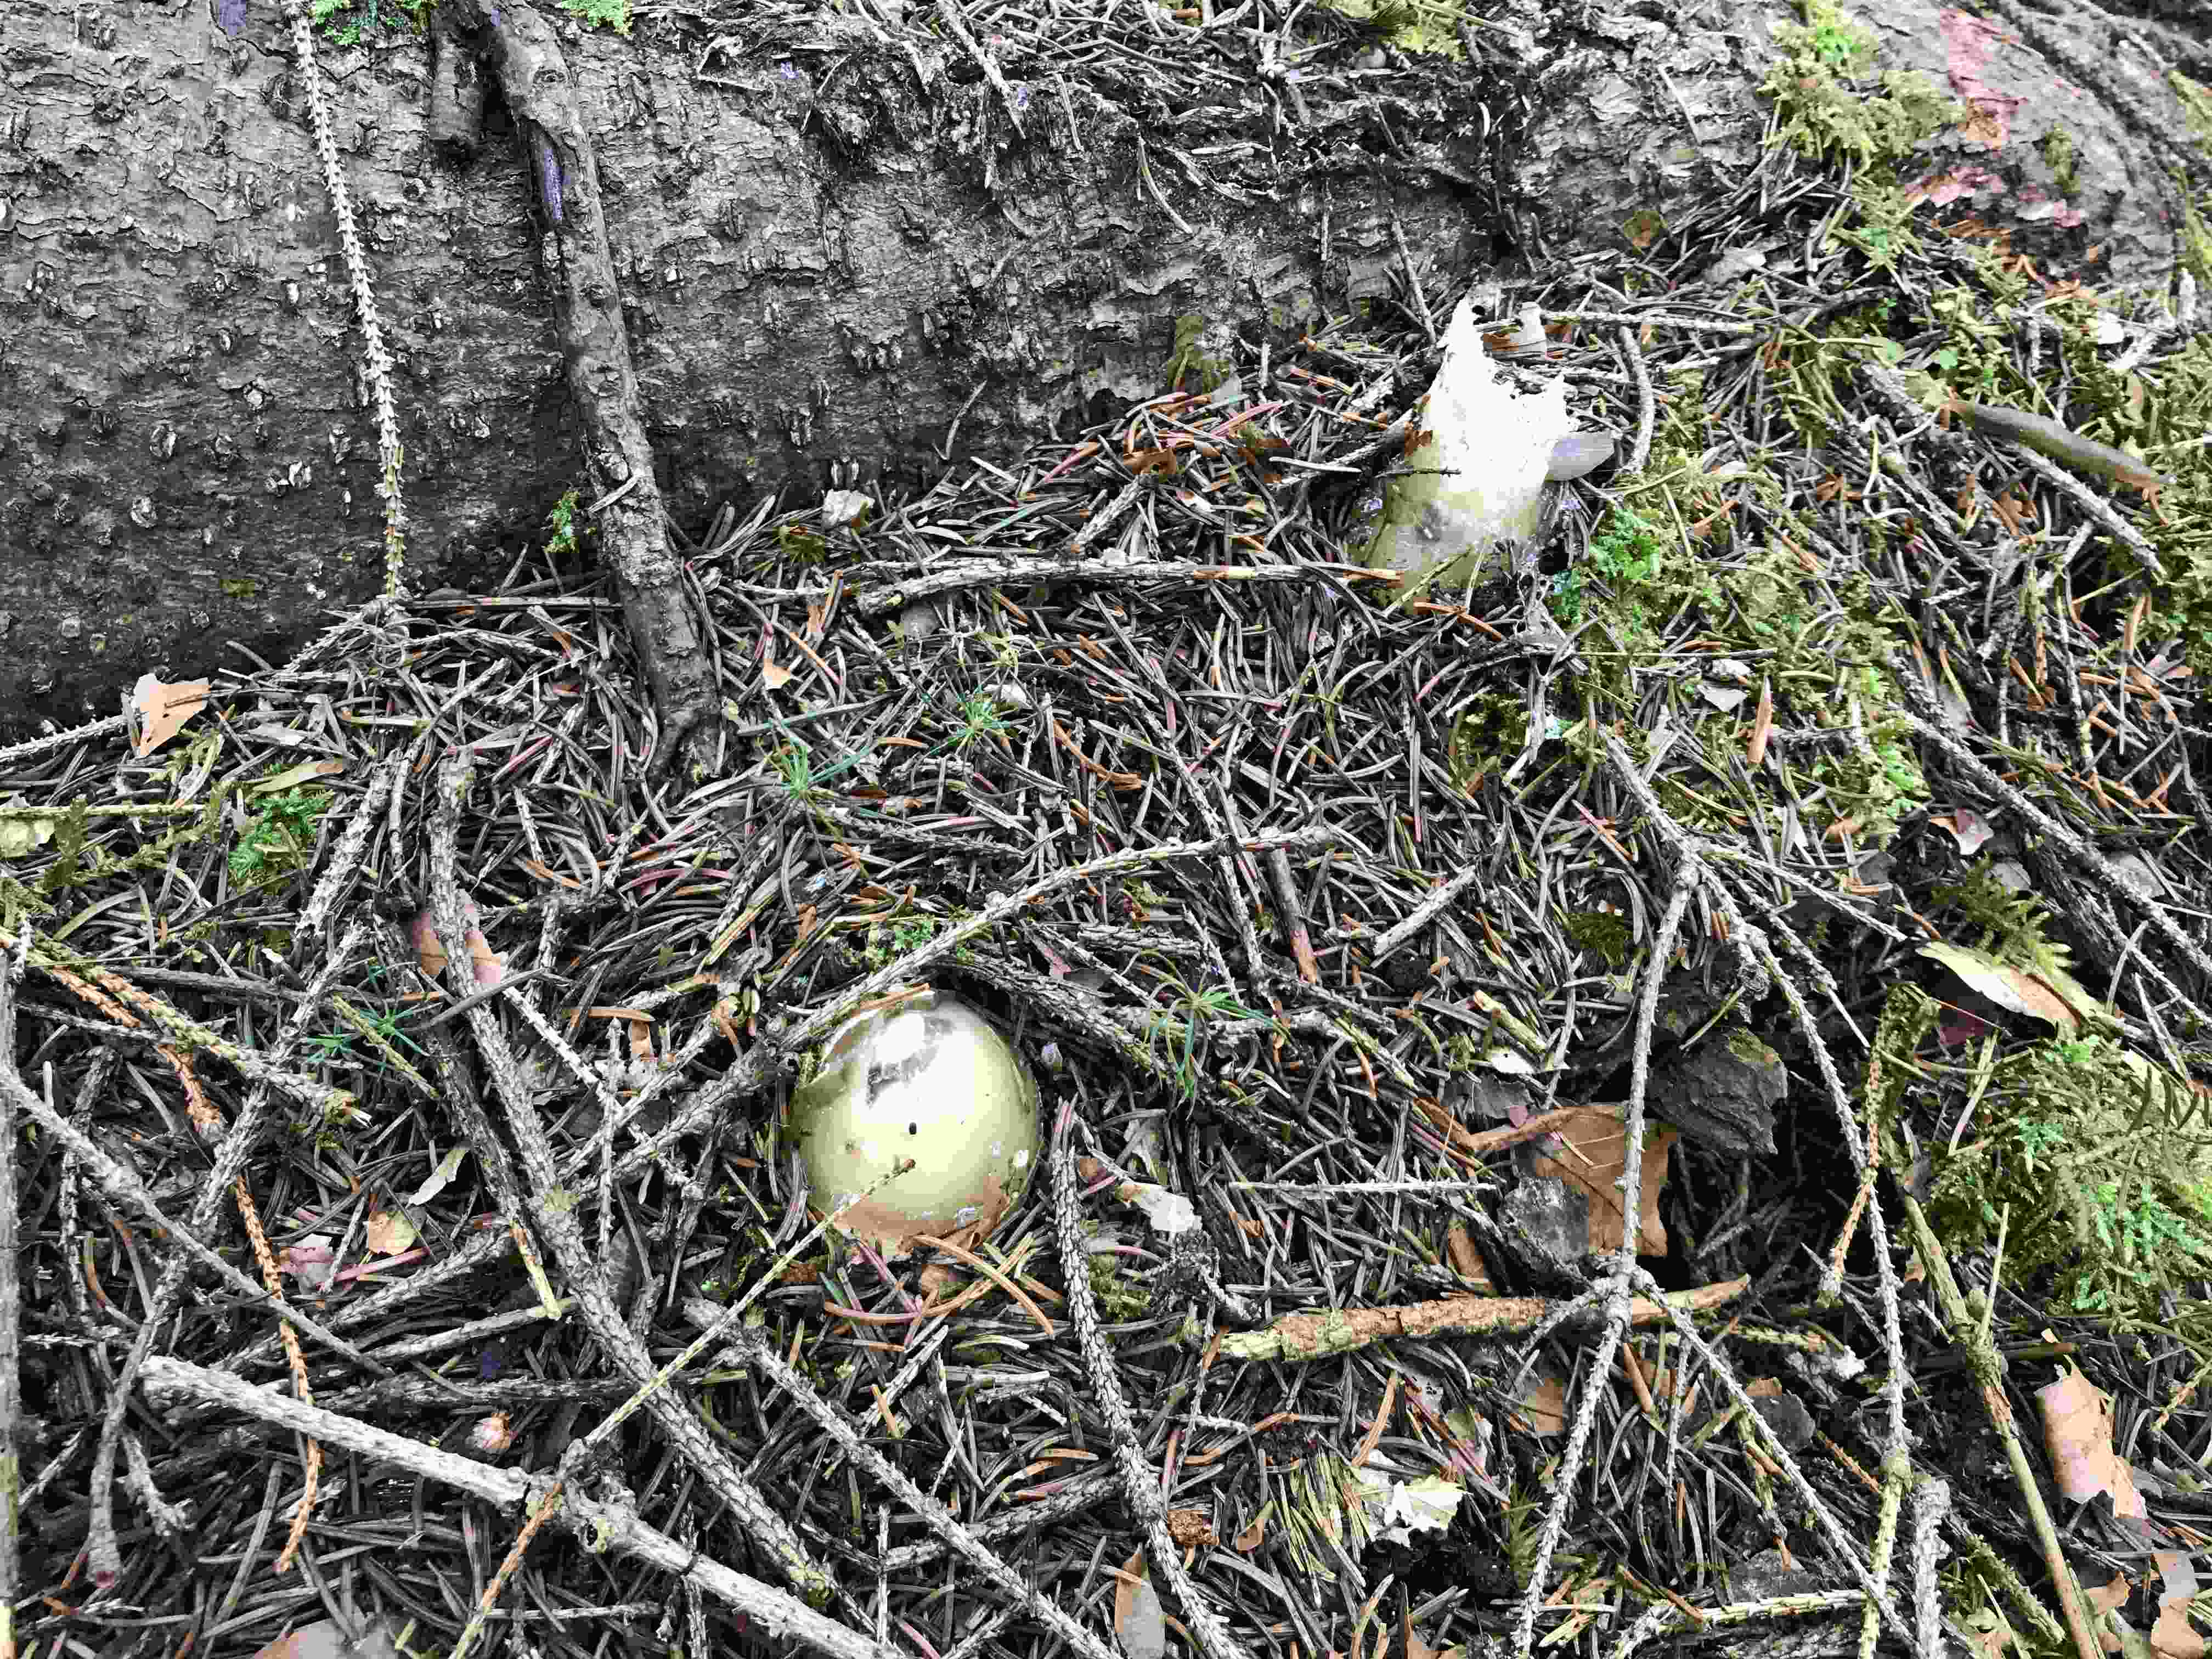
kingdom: Fungi
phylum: Basidiomycota
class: Agaricomycetes
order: Phallales
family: Phallaceae
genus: Phallus
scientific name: Phallus impudicus
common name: almindelig stinksvamp
